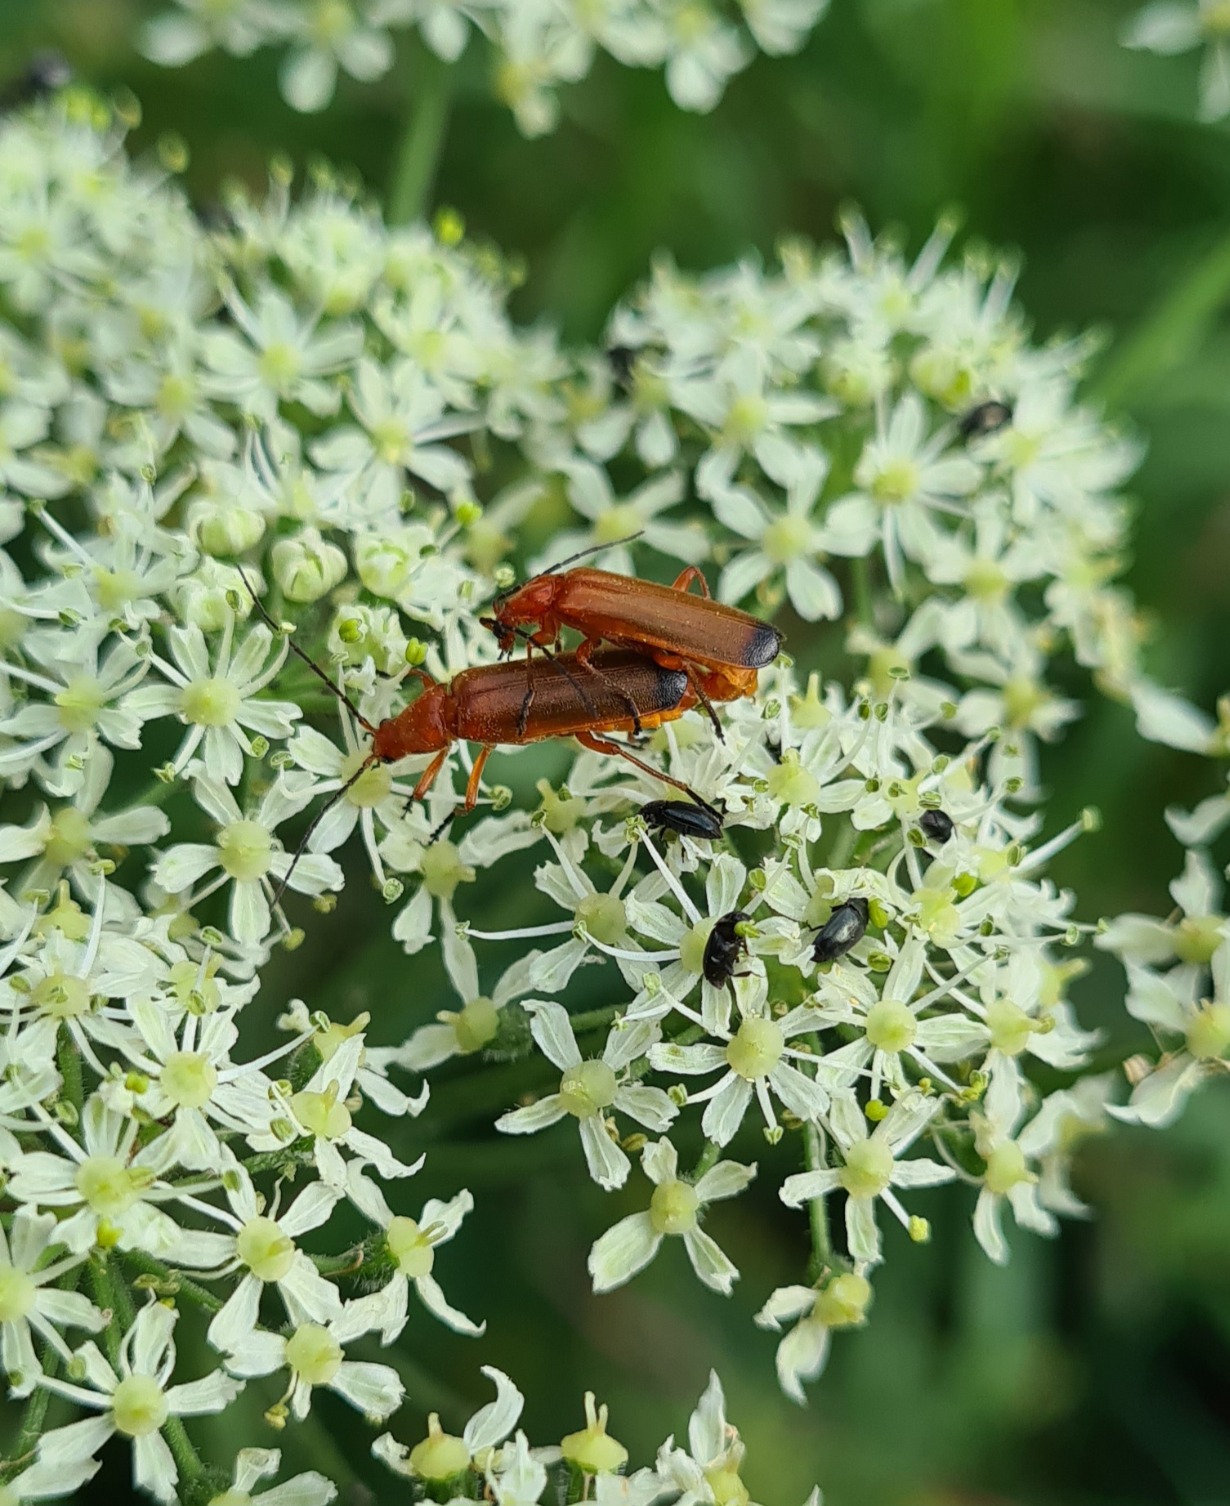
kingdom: Animalia
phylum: Arthropoda
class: Insecta
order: Coleoptera
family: Cantharidae
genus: Rhagonycha
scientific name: Rhagonycha fulva
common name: Præstebille
